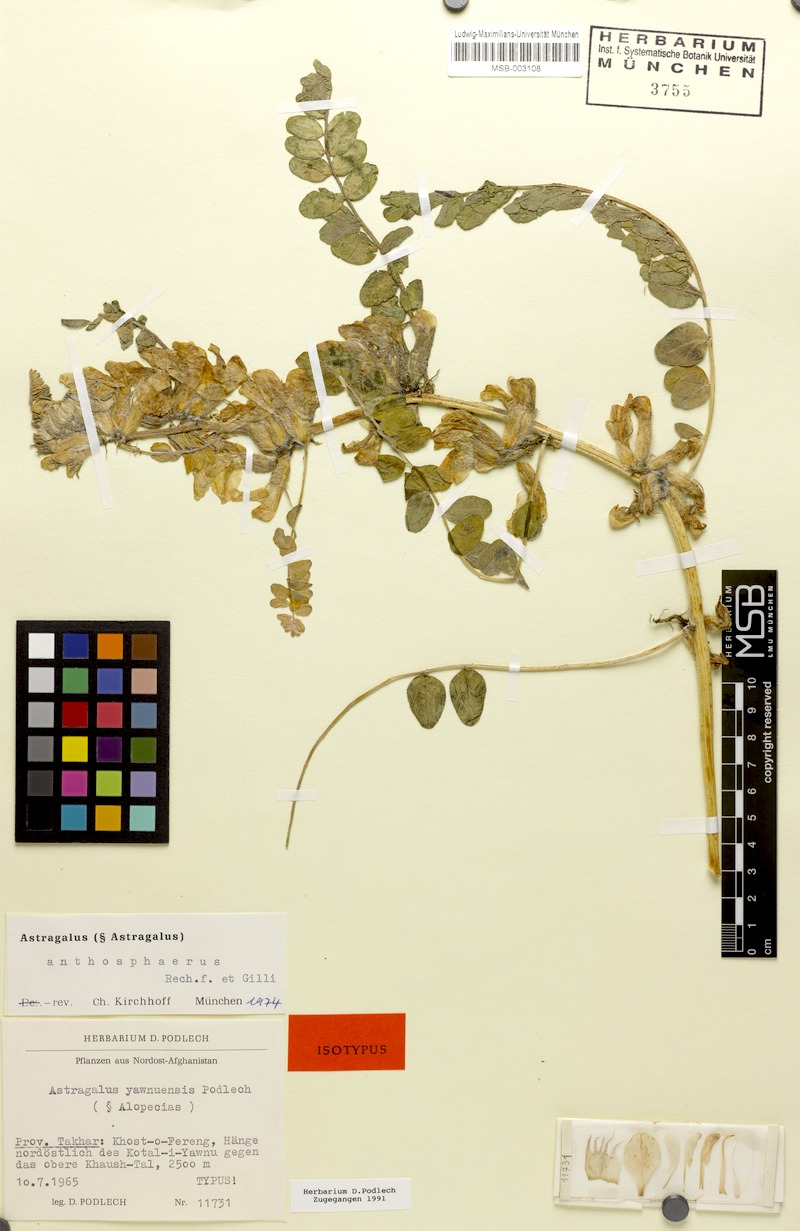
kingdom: Plantae
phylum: Tracheophyta
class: Magnoliopsida
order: Fabales
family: Fabaceae
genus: Astragalus
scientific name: Astragalus anthosphaerus
